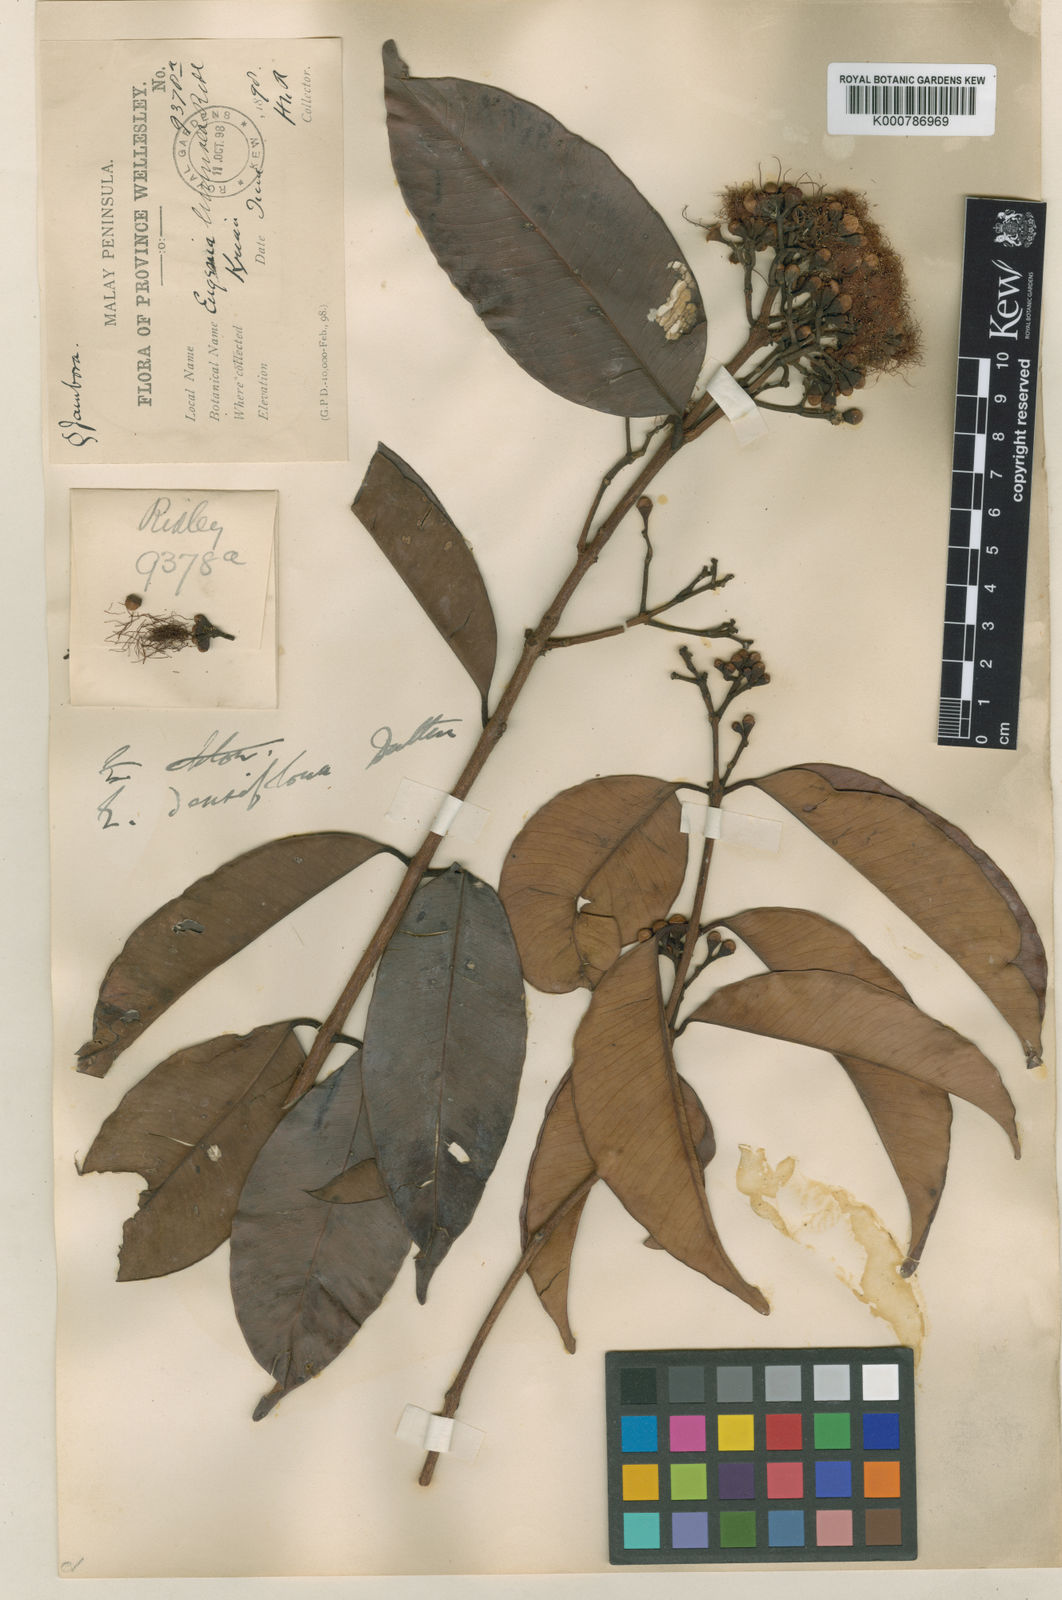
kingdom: Plantae
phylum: Tracheophyta
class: Magnoliopsida
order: Myrtales
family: Myrtaceae
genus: Syzygium
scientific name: Syzygium
